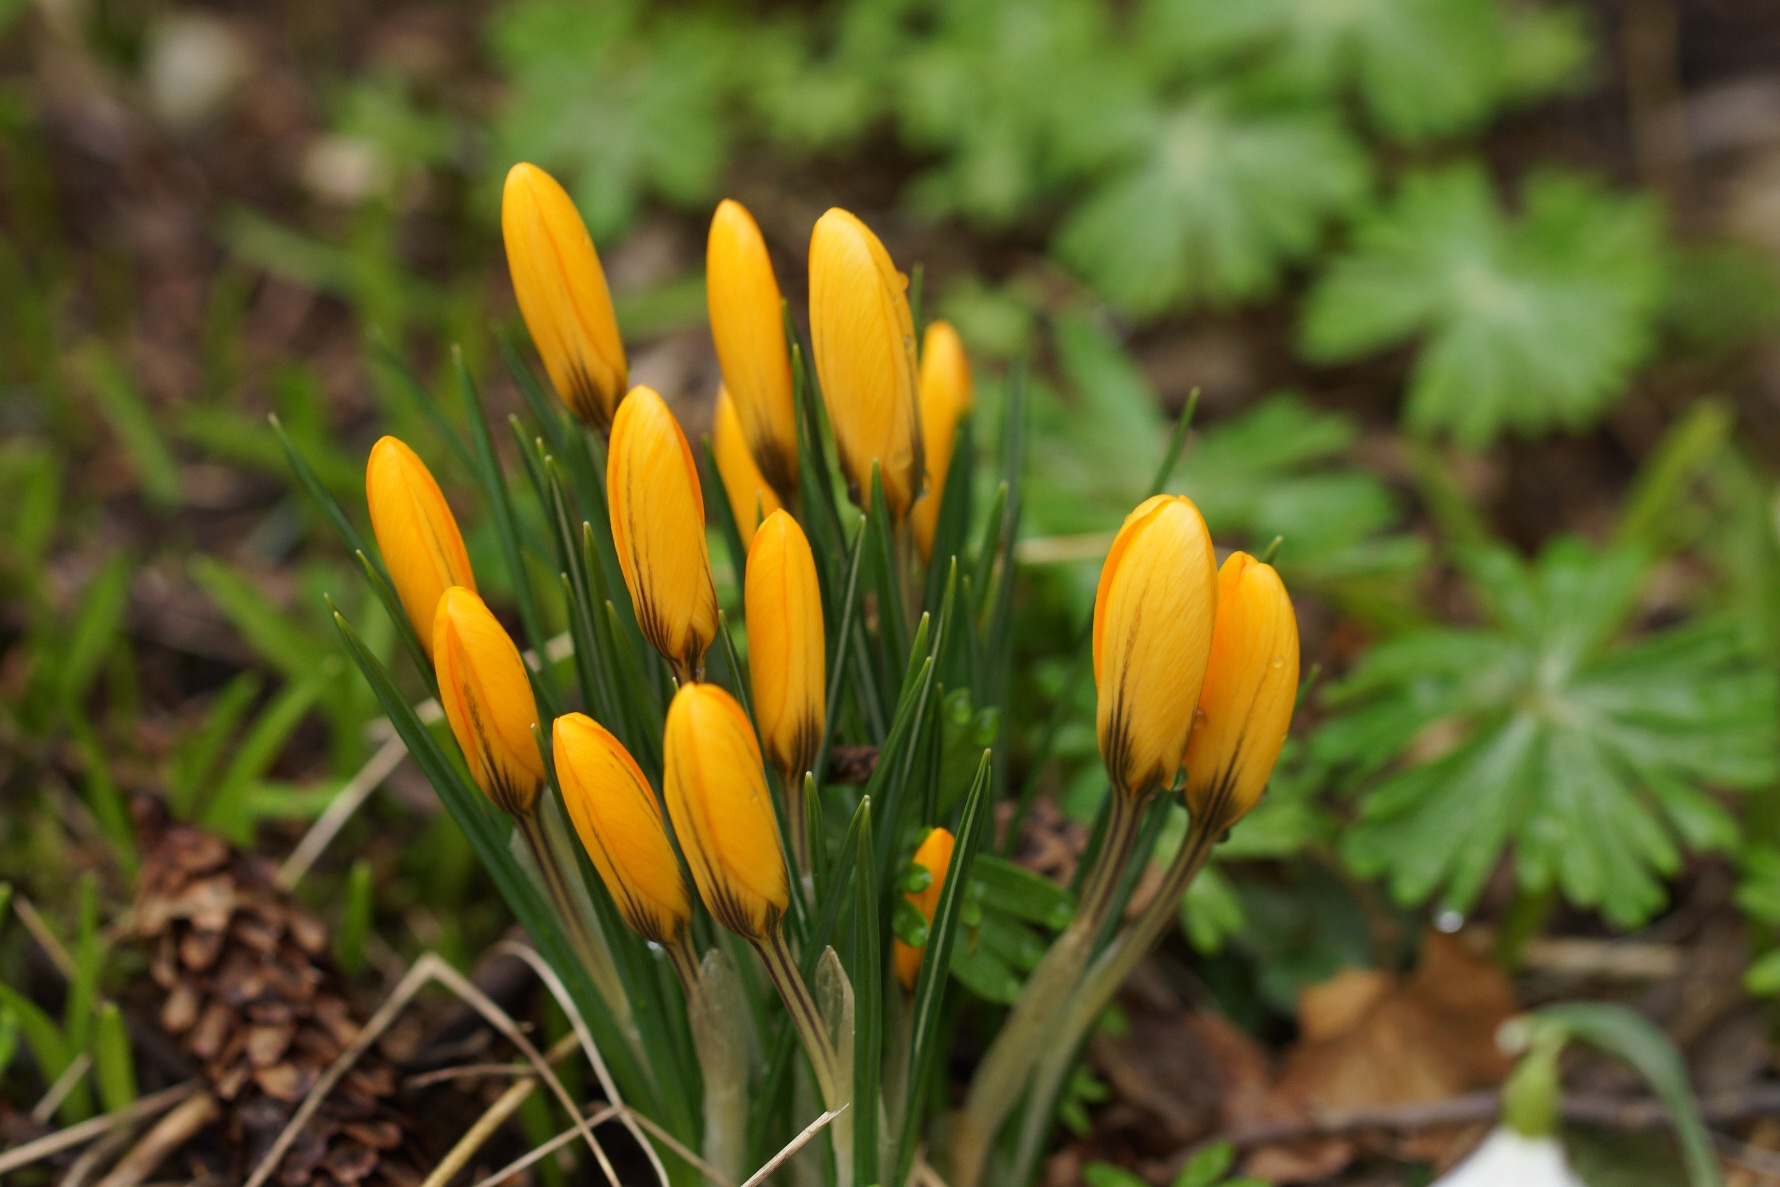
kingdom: Plantae
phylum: Tracheophyta
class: Liliopsida
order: Asparagales
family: Iridaceae
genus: Crocus
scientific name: Crocus chrysanthus
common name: Skede-krokus
